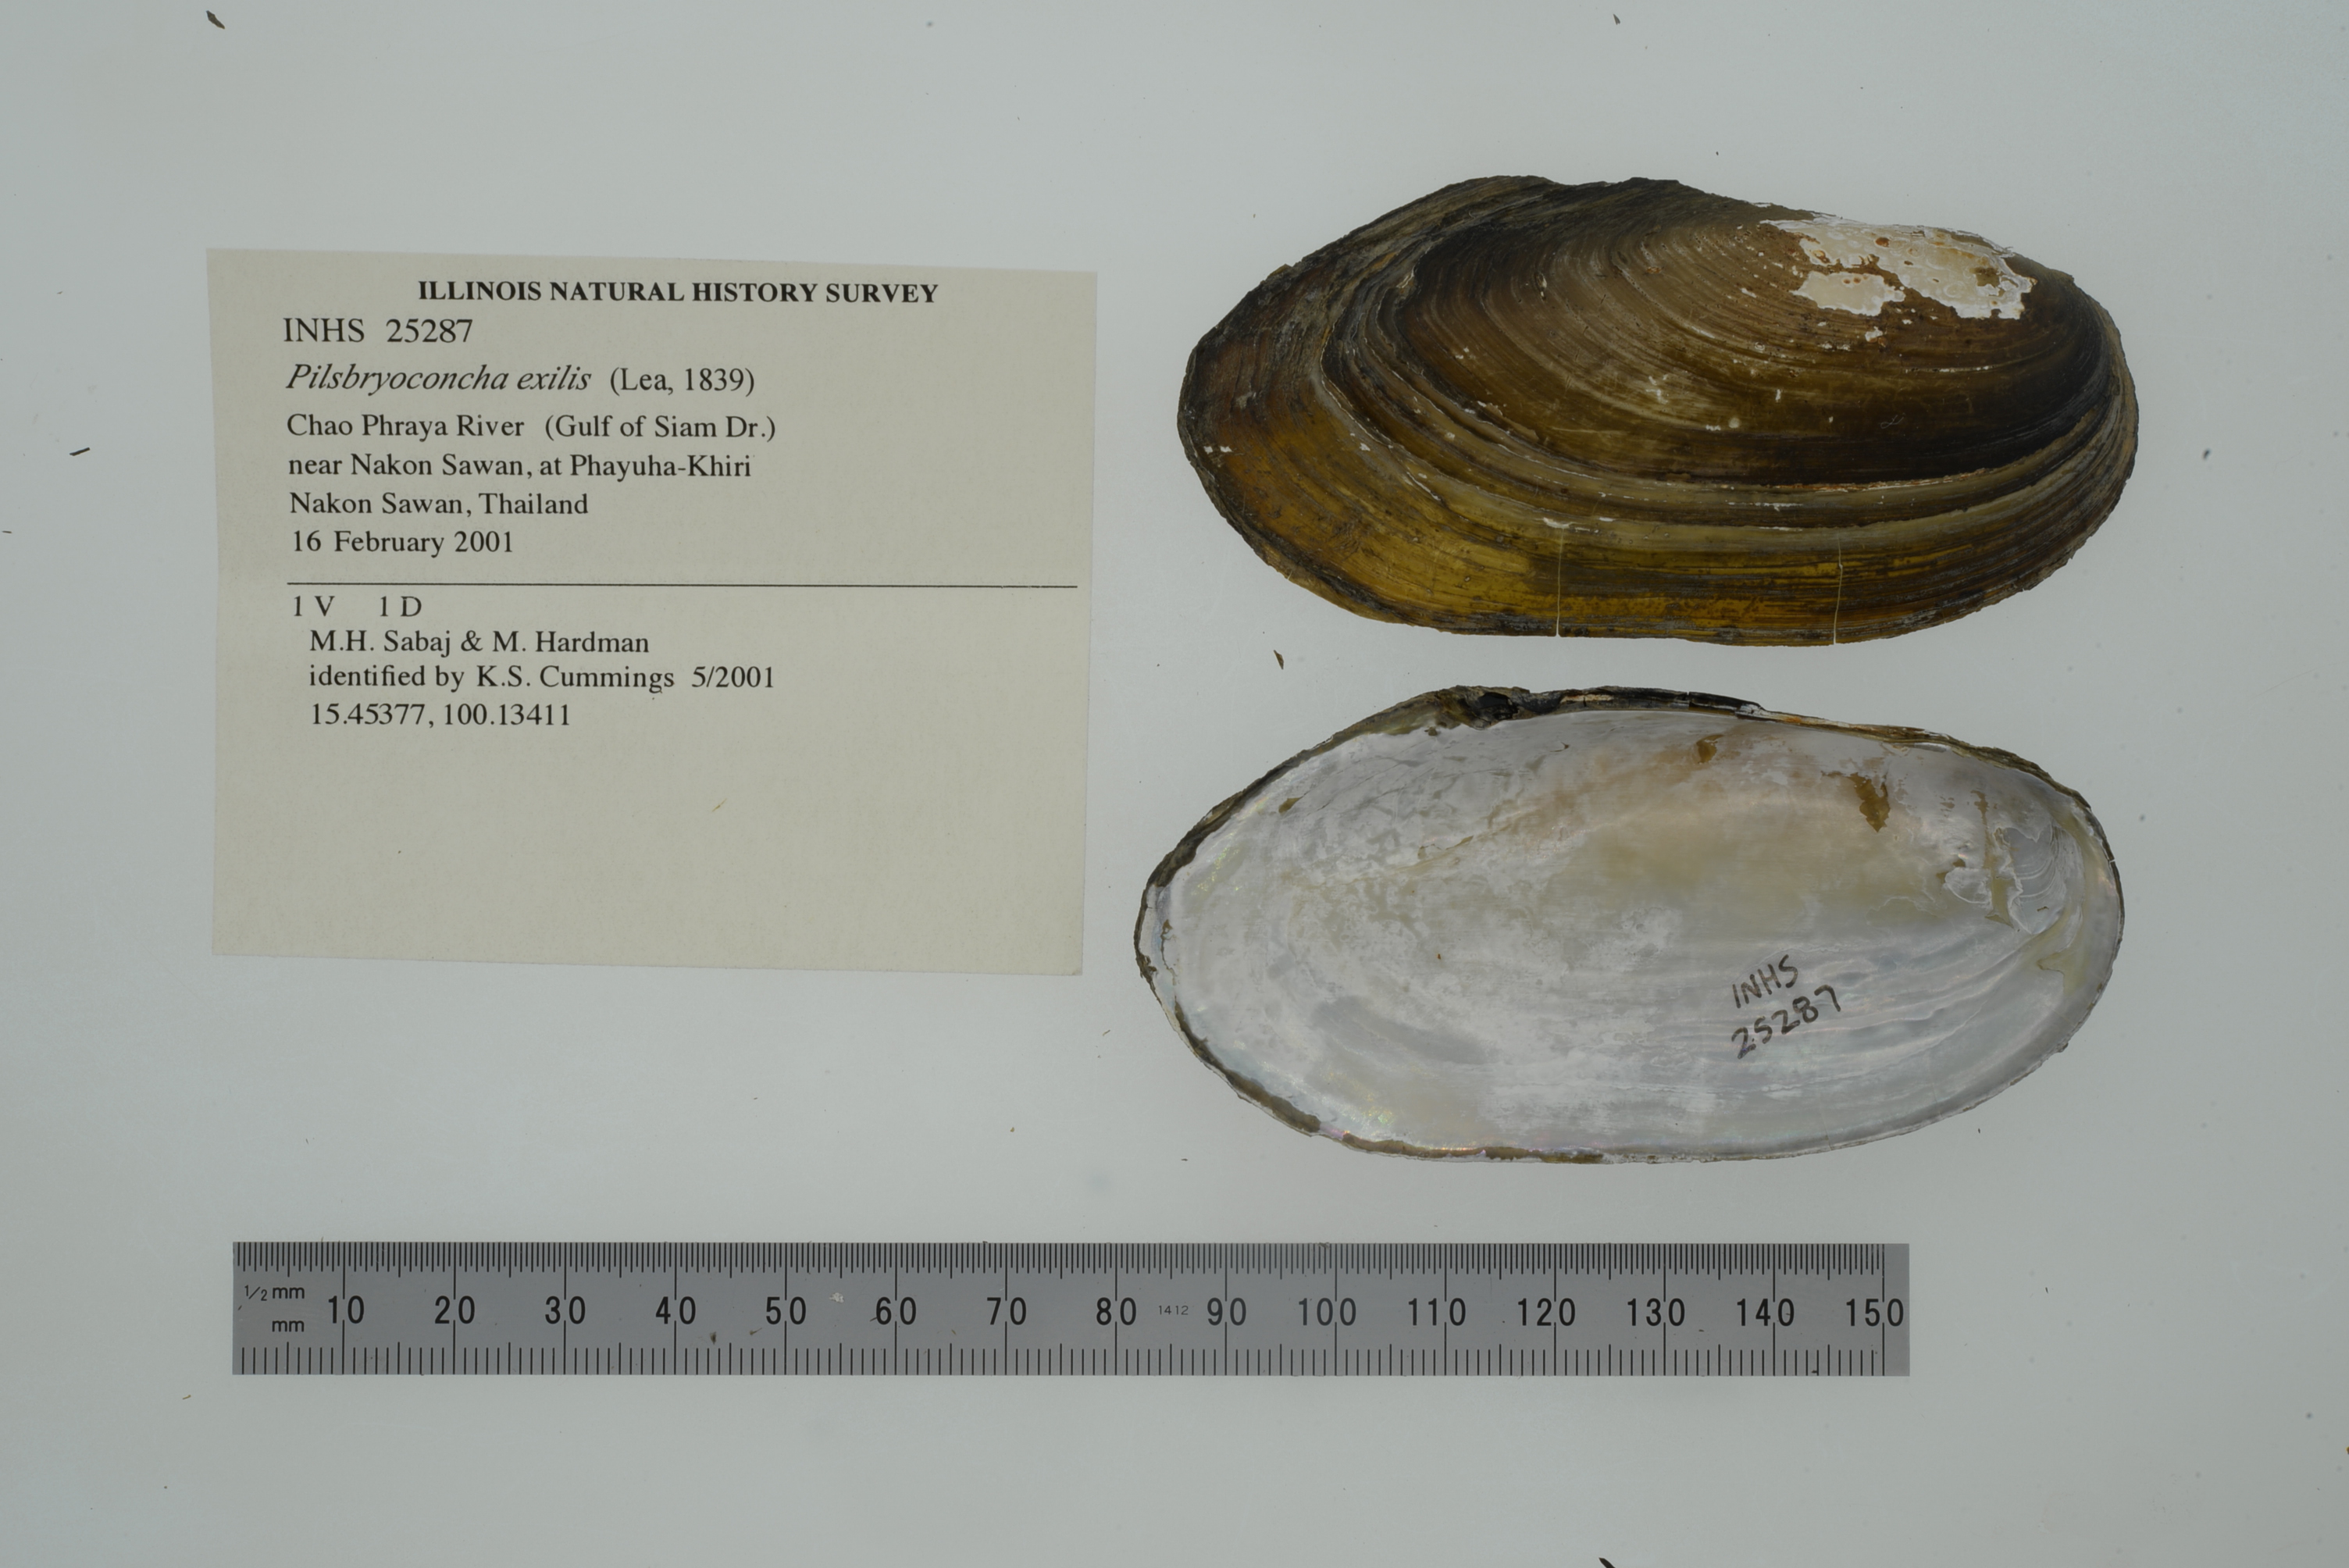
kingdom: Animalia
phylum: Mollusca
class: Bivalvia
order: Unionida
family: Unionidae
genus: Pilsbryoconcha
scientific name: Pilsbryoconcha exilis
